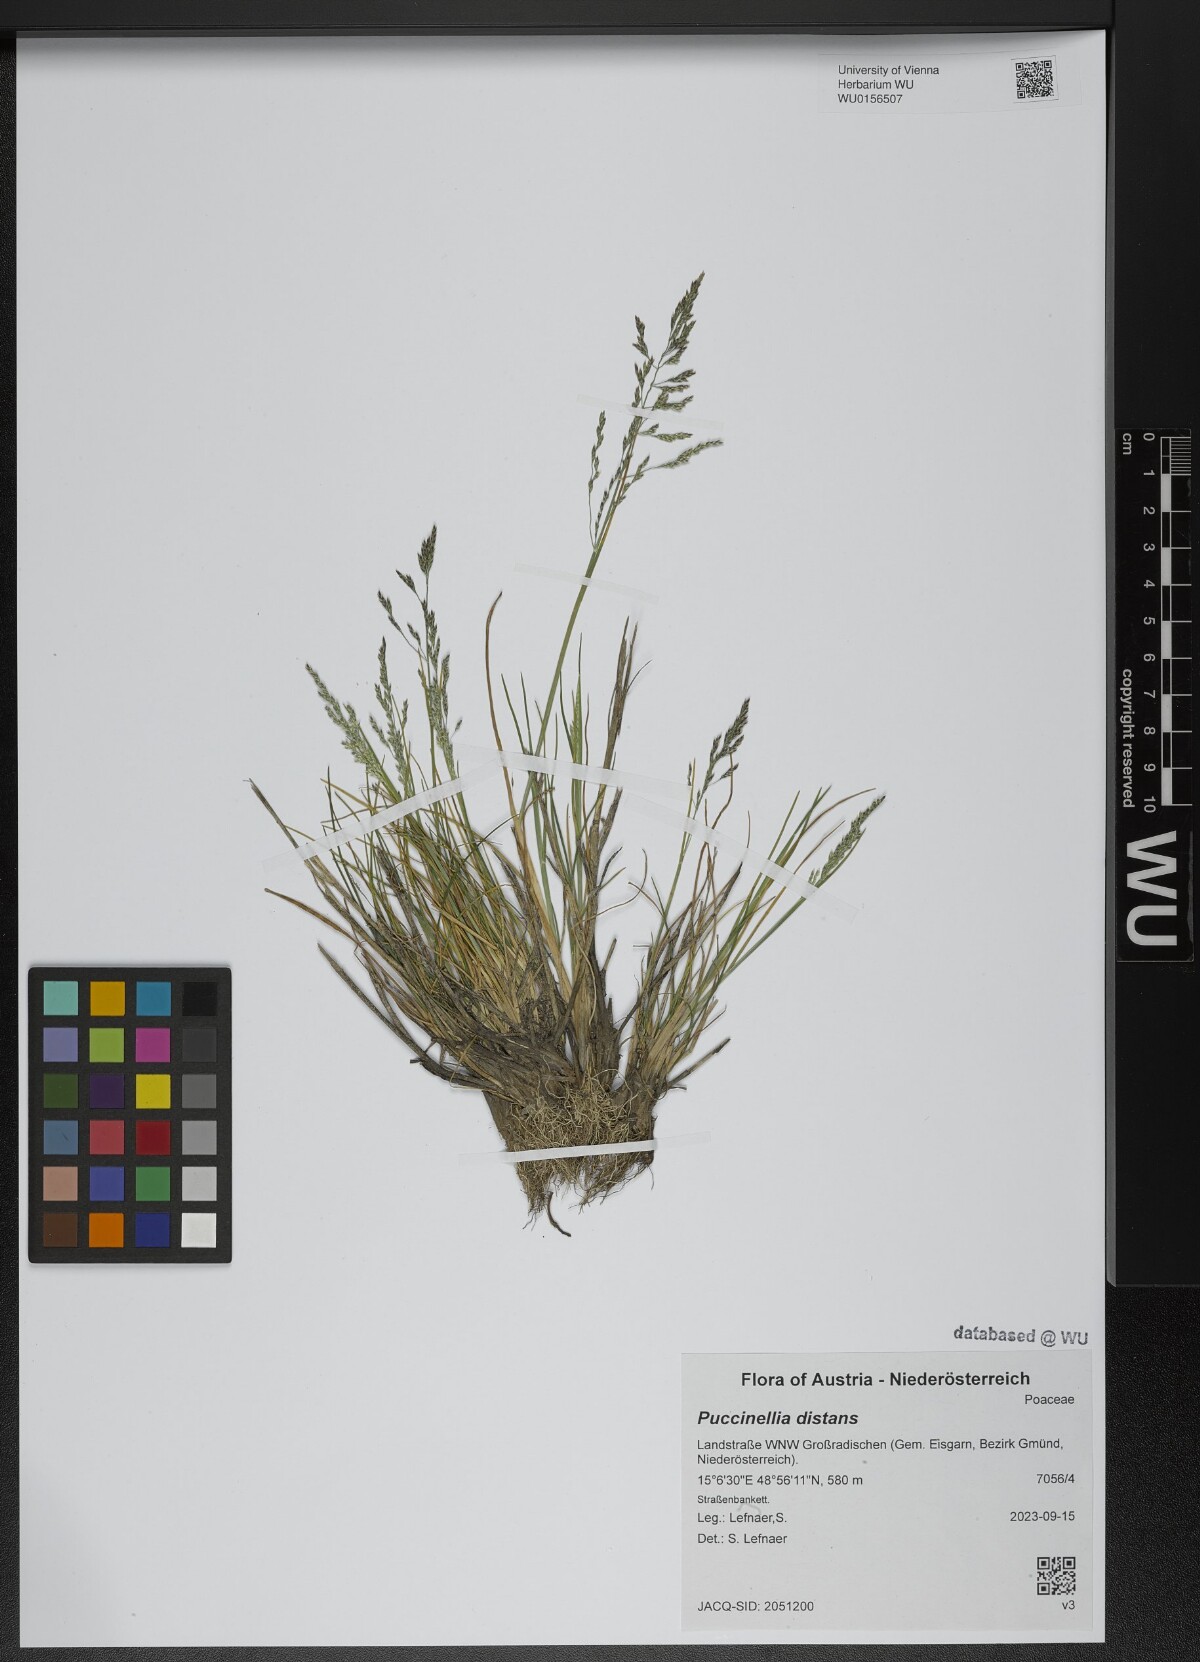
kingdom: Plantae
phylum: Tracheophyta
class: Liliopsida
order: Poales
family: Poaceae
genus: Puccinellia
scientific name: Puccinellia distans
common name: Weeping alkaligrass
